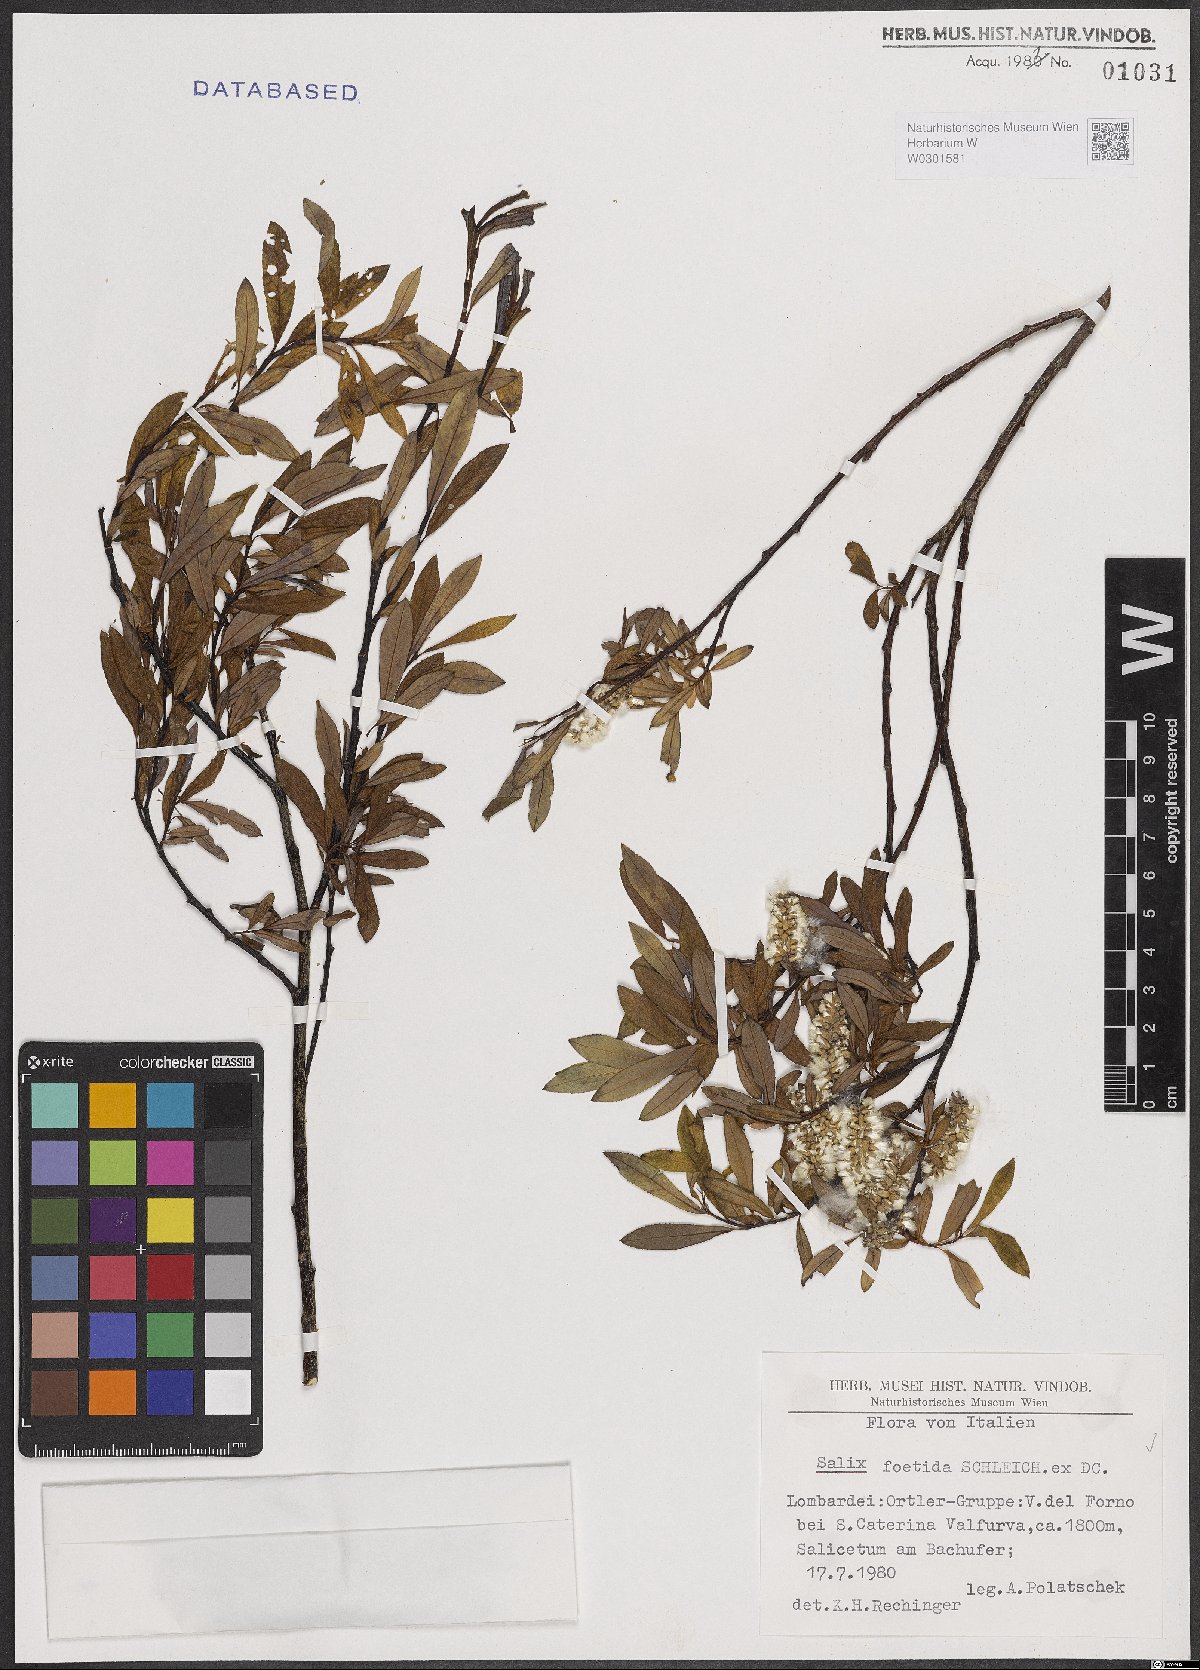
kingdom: Plantae
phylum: Tracheophyta
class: Magnoliopsida
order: Malpighiales
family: Salicaceae
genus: Salix
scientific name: Salix foetida
